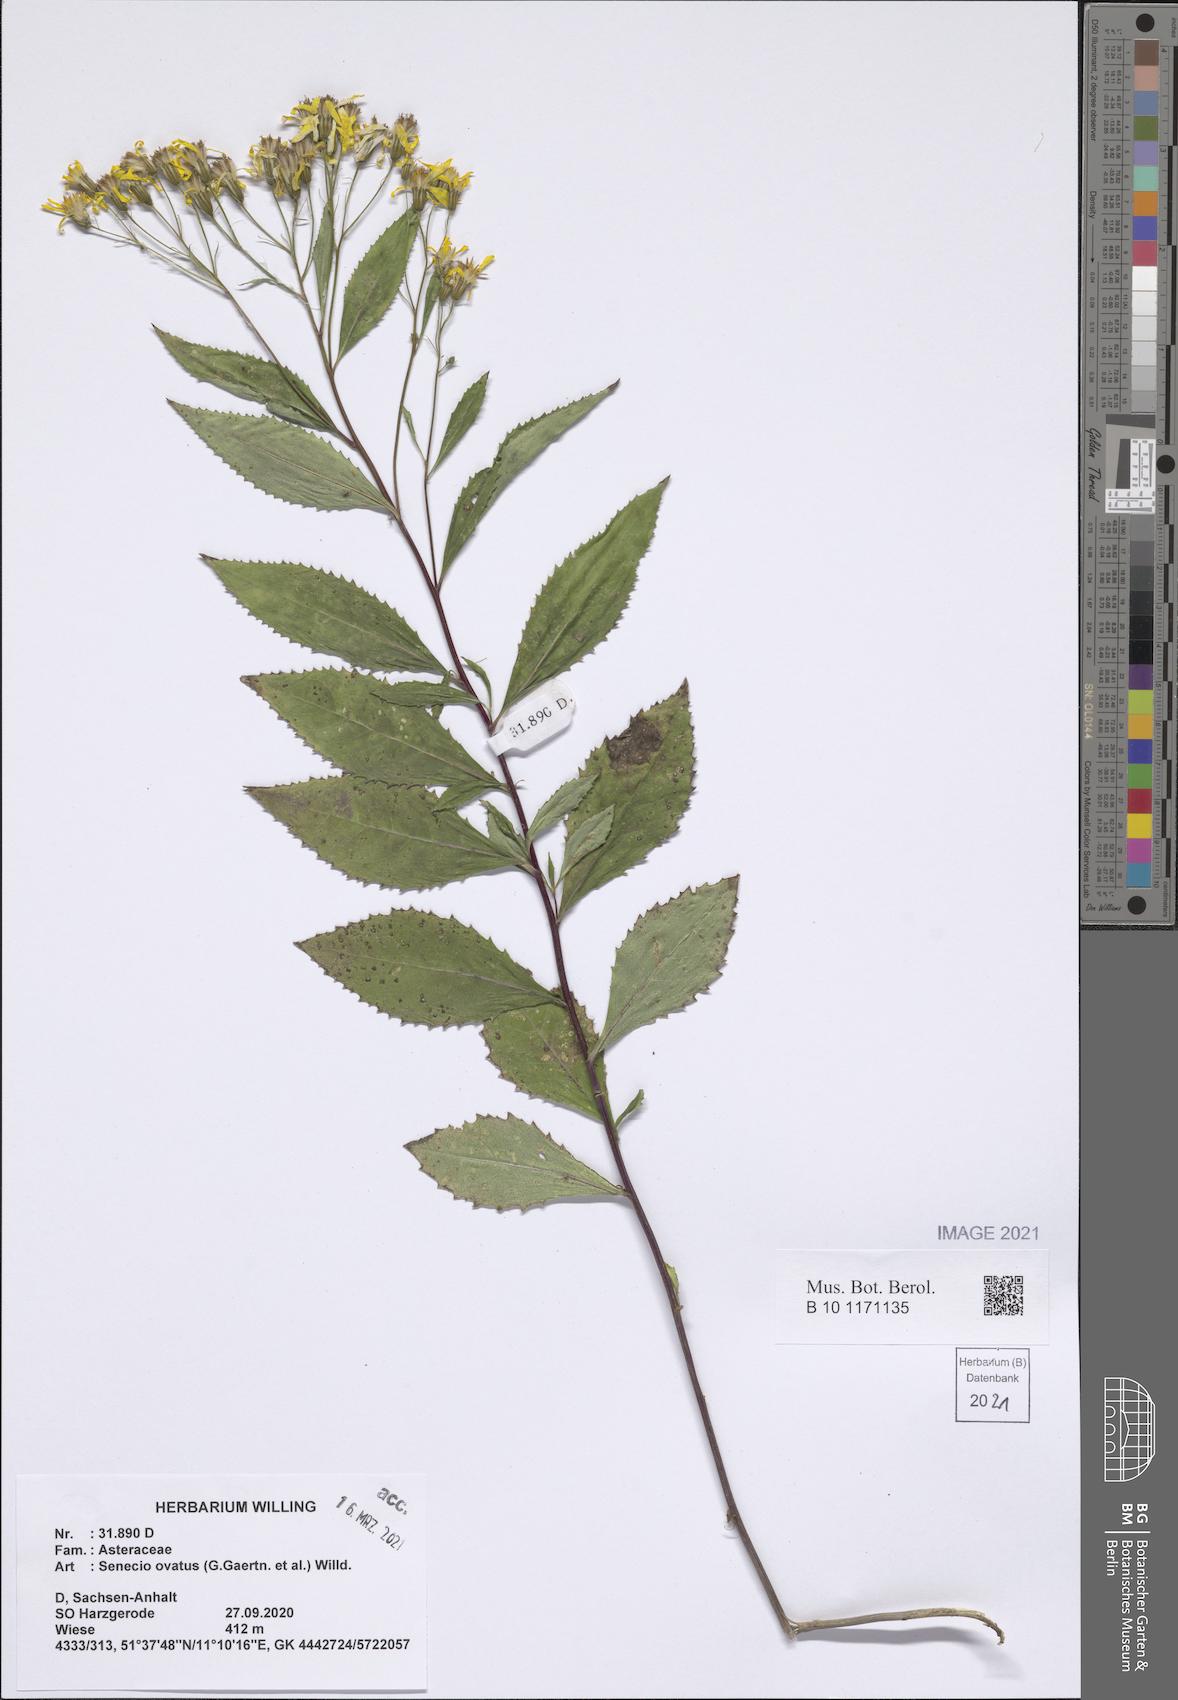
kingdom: Plantae
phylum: Tracheophyta
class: Magnoliopsida
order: Asterales
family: Asteraceae
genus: Senecio
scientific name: Senecio ovatus
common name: Wood ragwort
